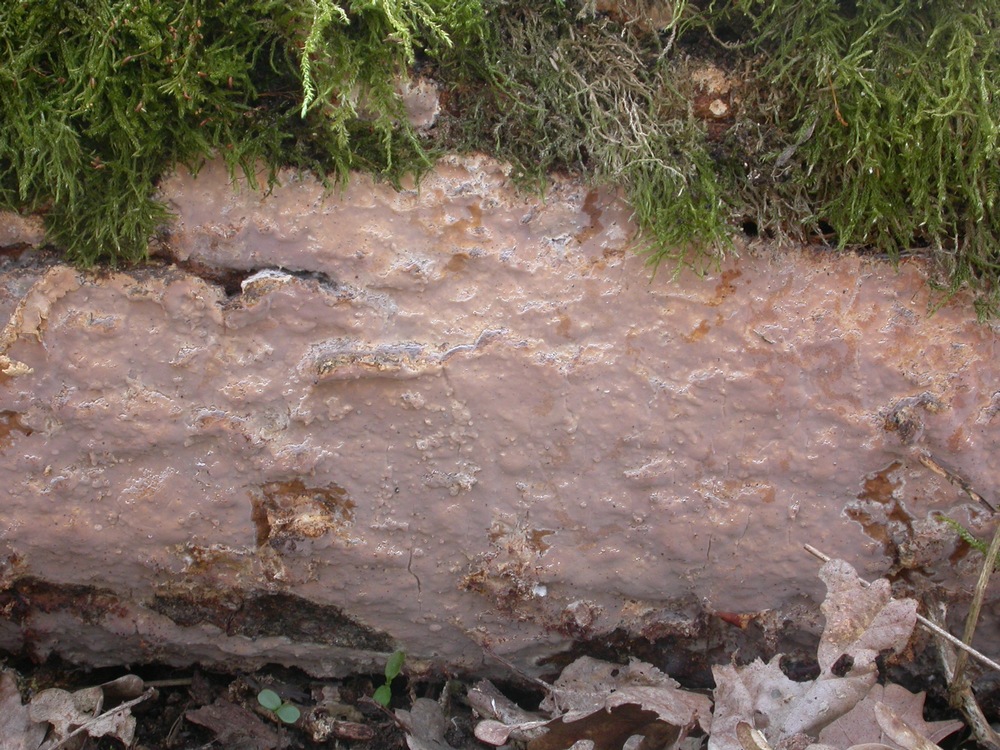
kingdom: Fungi
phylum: Basidiomycota
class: Agaricomycetes
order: Russulales
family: Peniophoraceae
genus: Scytinostroma
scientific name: Scytinostroma hemidichophyticum
